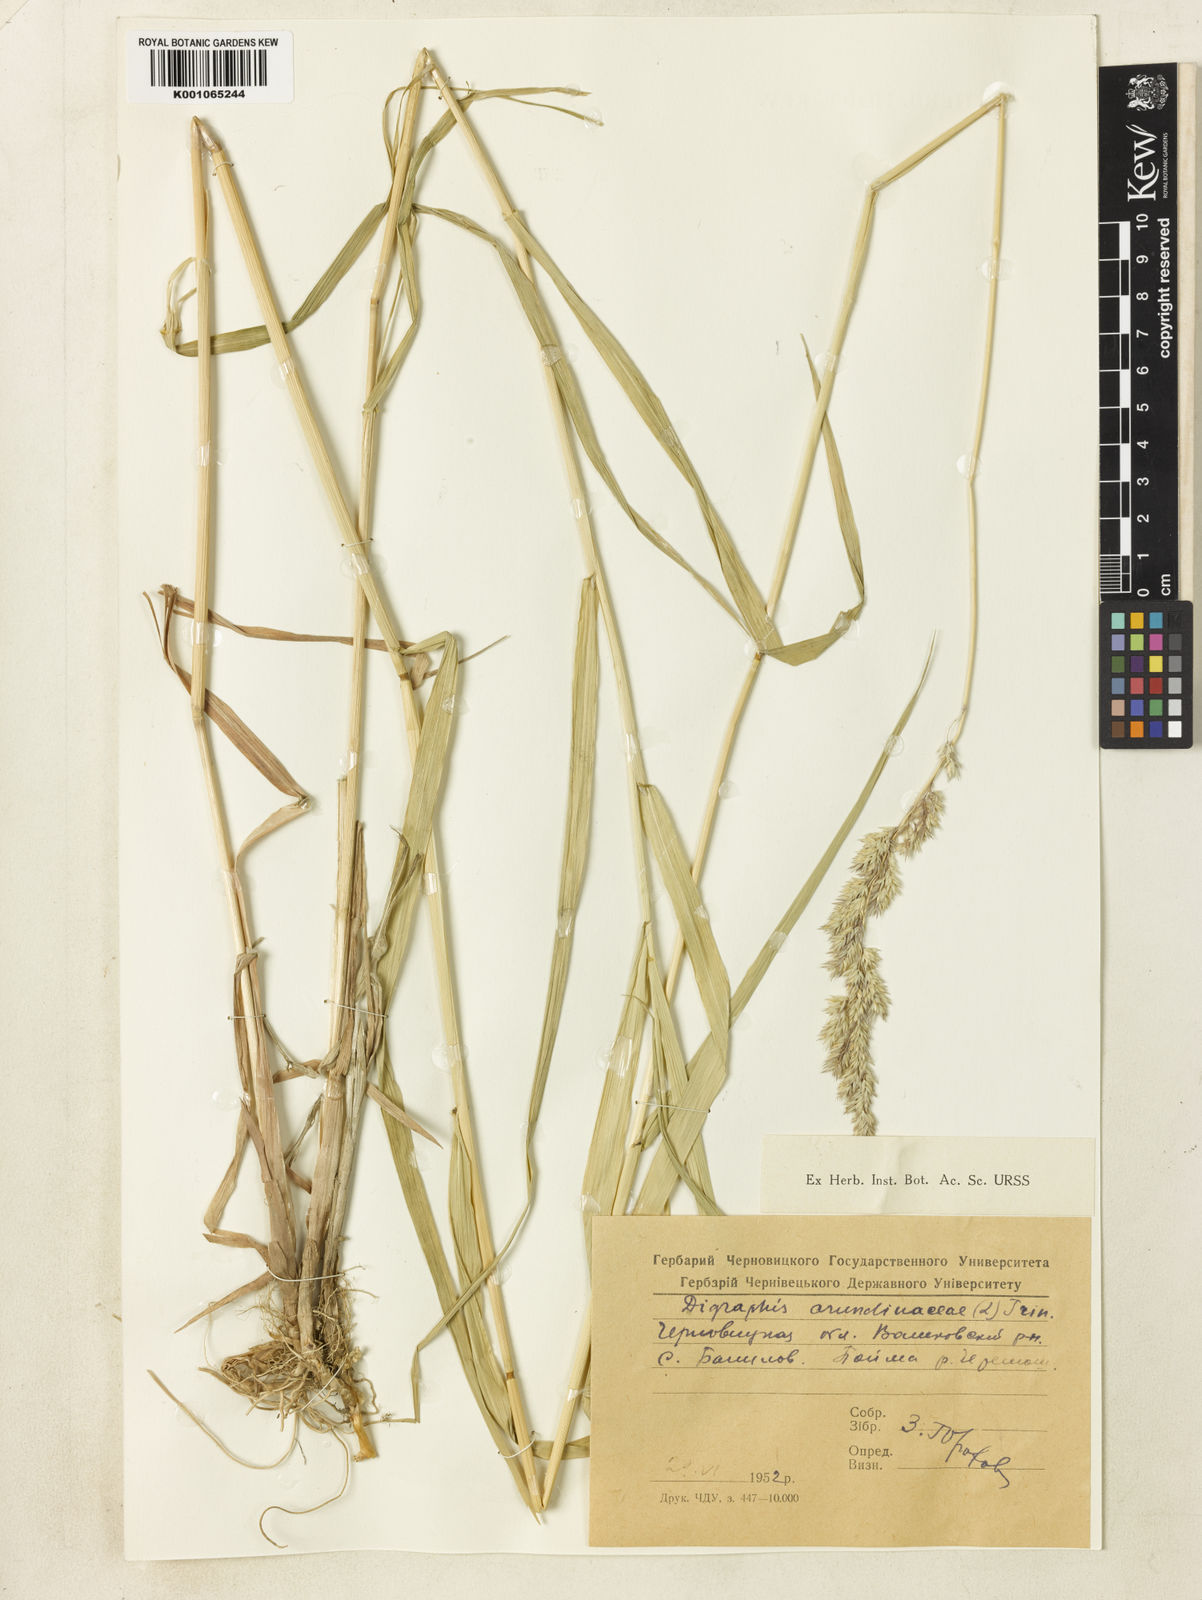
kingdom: Plantae
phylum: Tracheophyta
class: Liliopsida
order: Poales
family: Poaceae
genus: Phalaris
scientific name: Phalaris arundinacea
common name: Reed canary-grass
